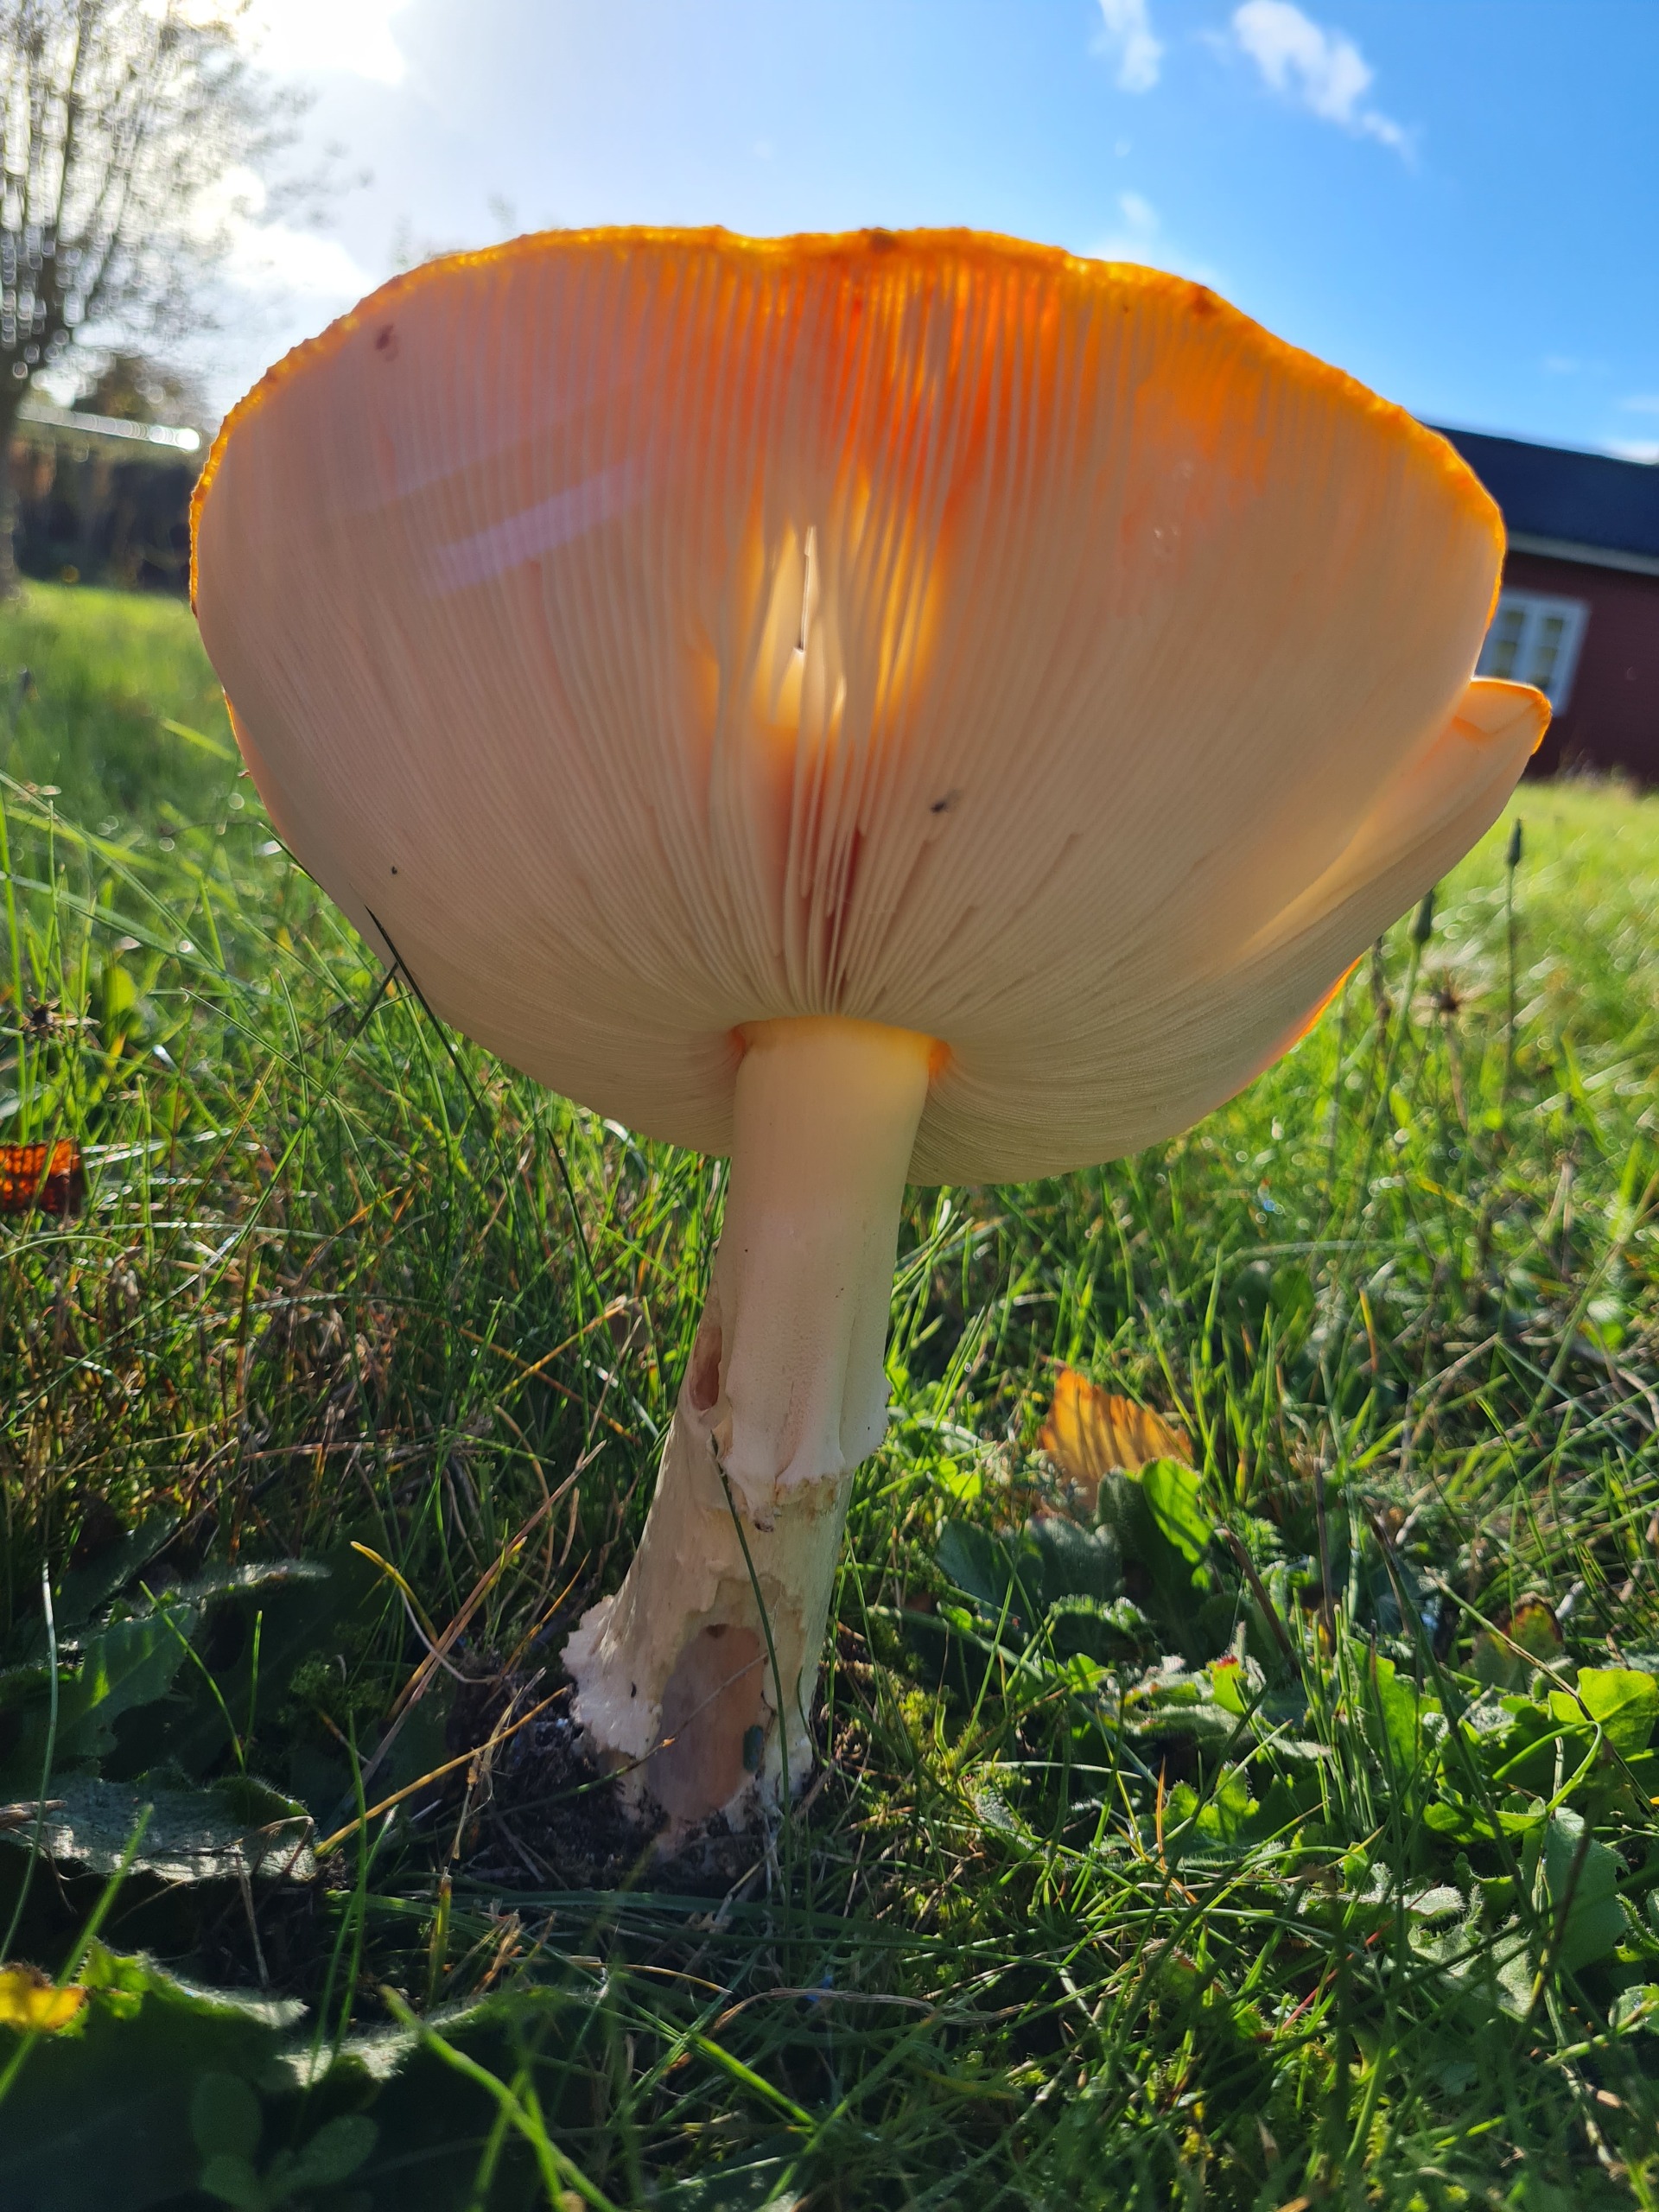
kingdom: Fungi
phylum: Basidiomycota
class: Agaricomycetes
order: Agaricales
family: Amanitaceae
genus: Amanita
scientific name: Amanita muscaria
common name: Rød fluesvamp
